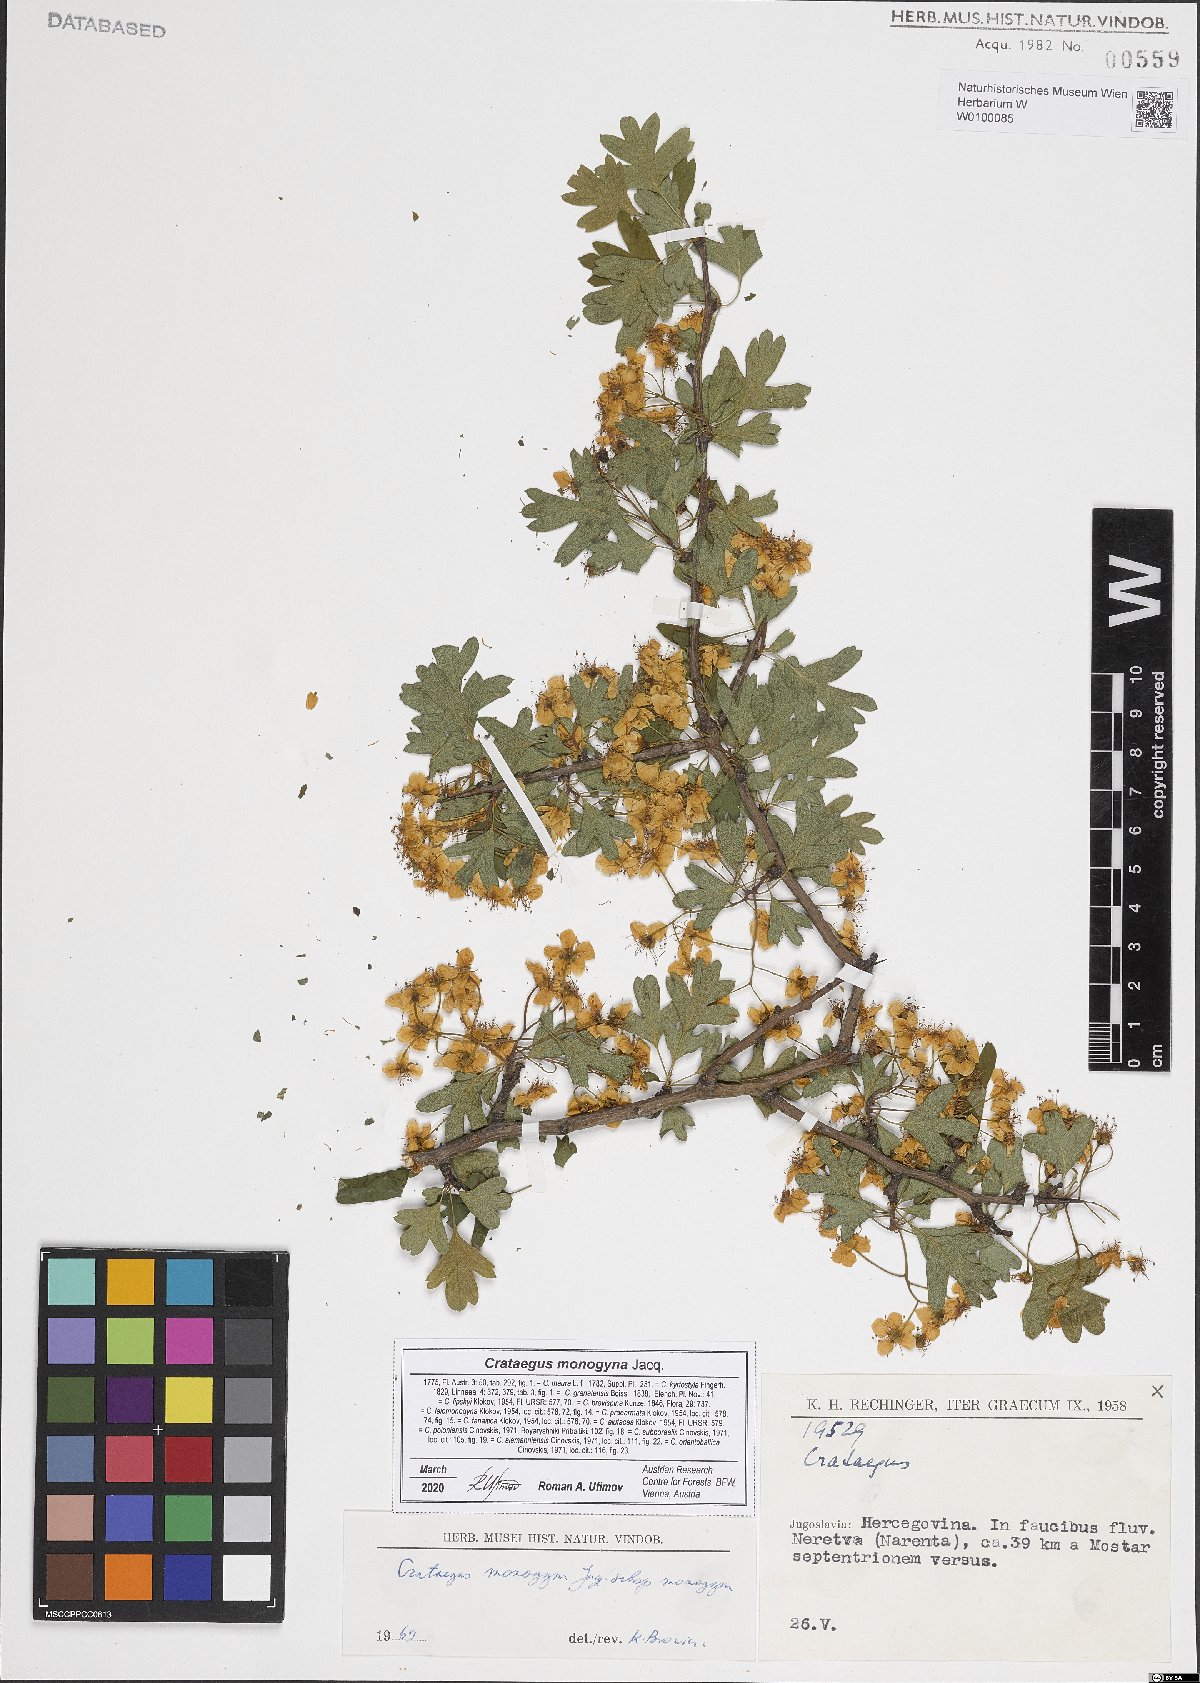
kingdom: Plantae
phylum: Tracheophyta
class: Magnoliopsida
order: Rosales
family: Rosaceae
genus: Crataegus
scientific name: Crataegus monogyna
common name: Hawthorn
